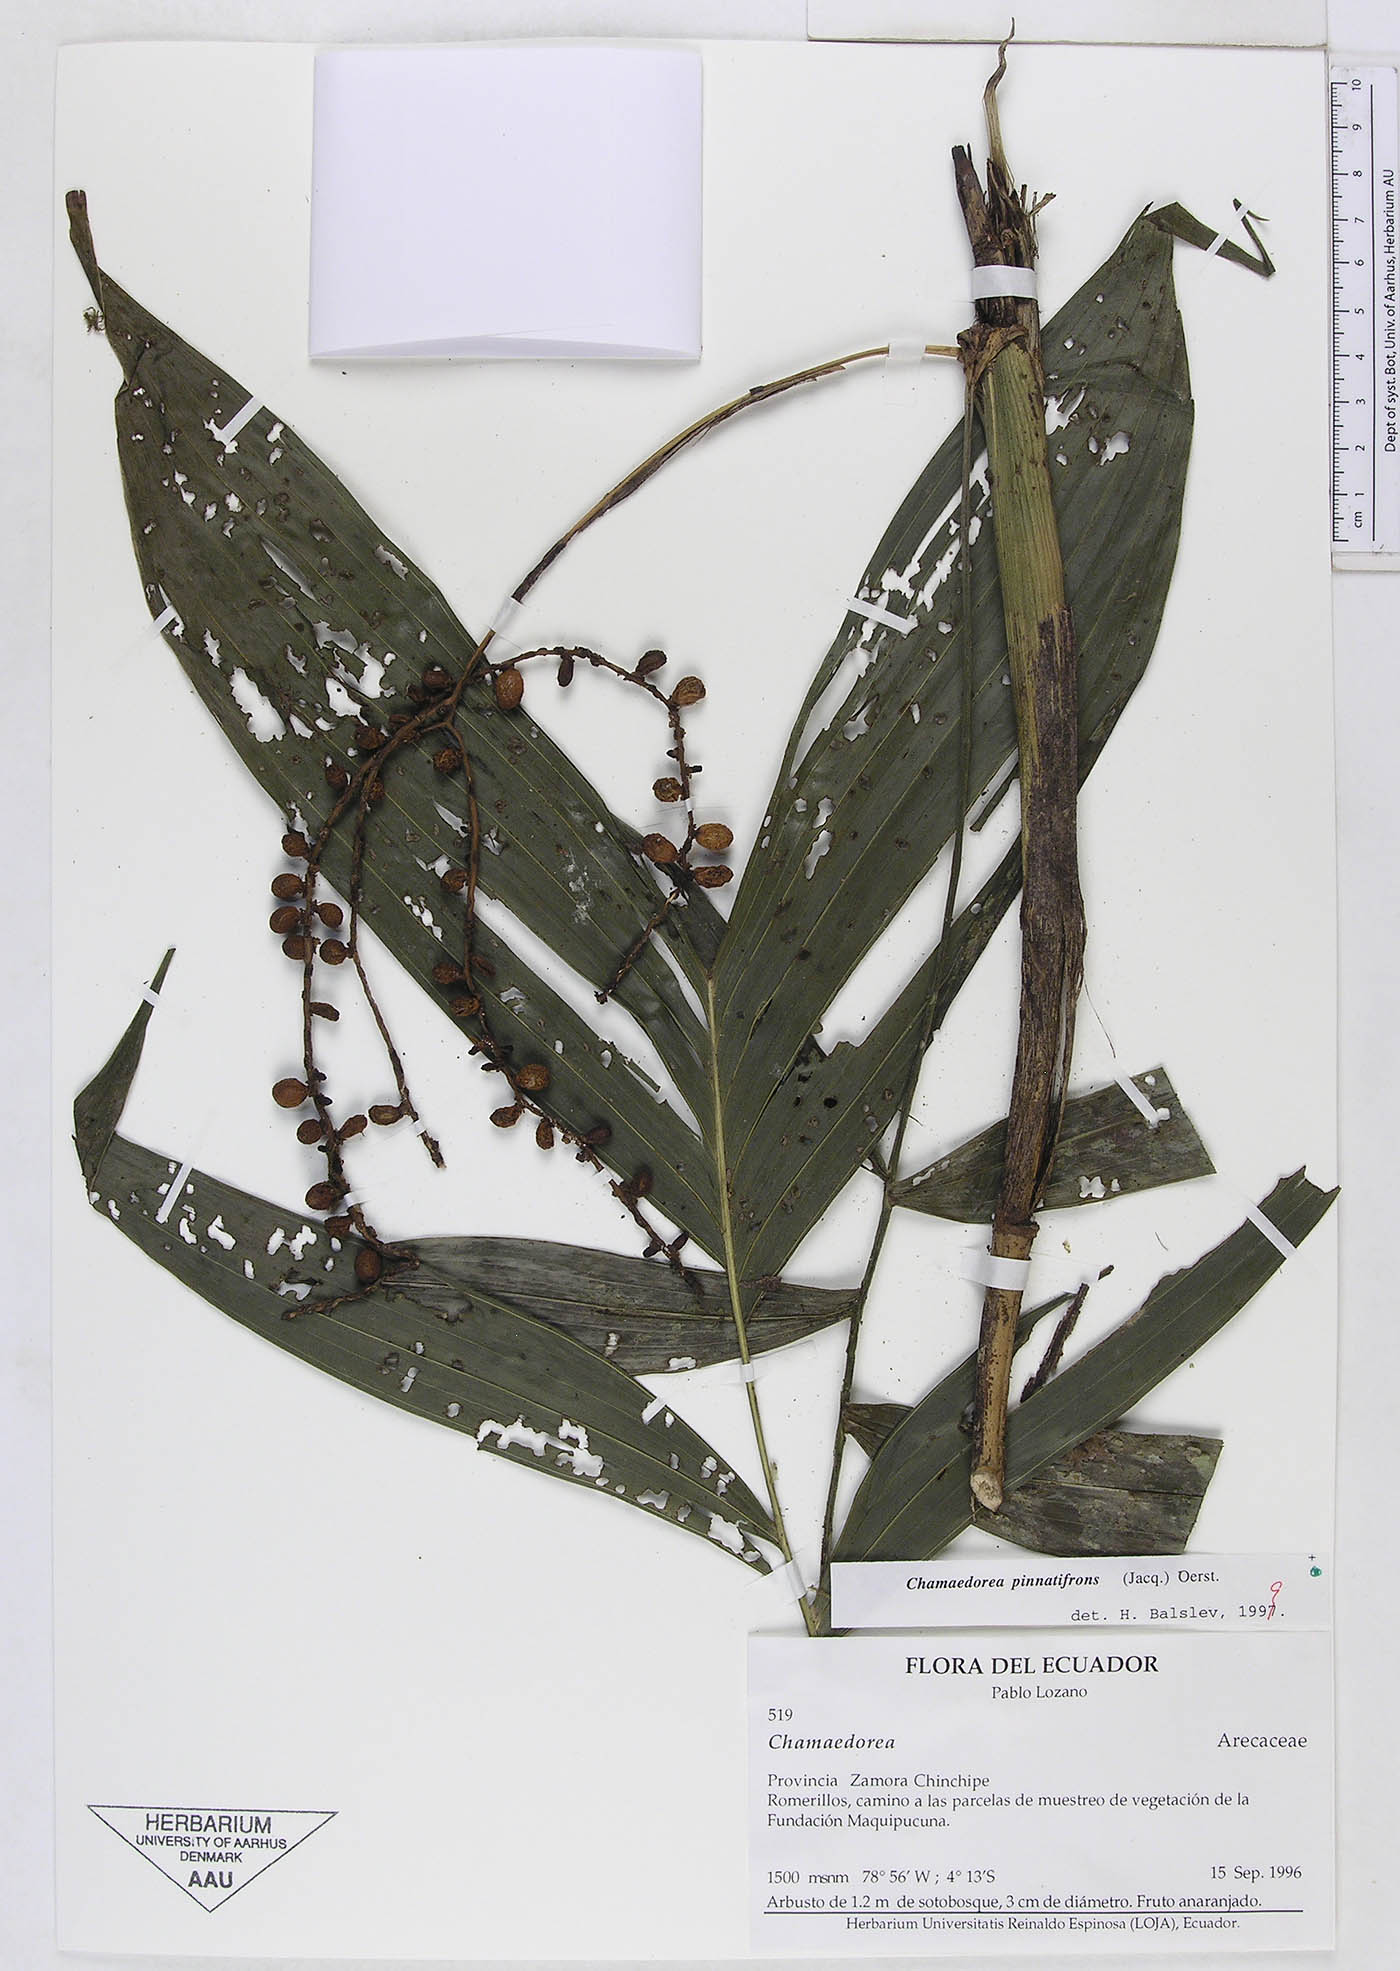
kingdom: Plantae
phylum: Tracheophyta
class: Liliopsida
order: Arecales
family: Arecaceae
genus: Chamaedorea
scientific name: Chamaedorea pinnatifrons
